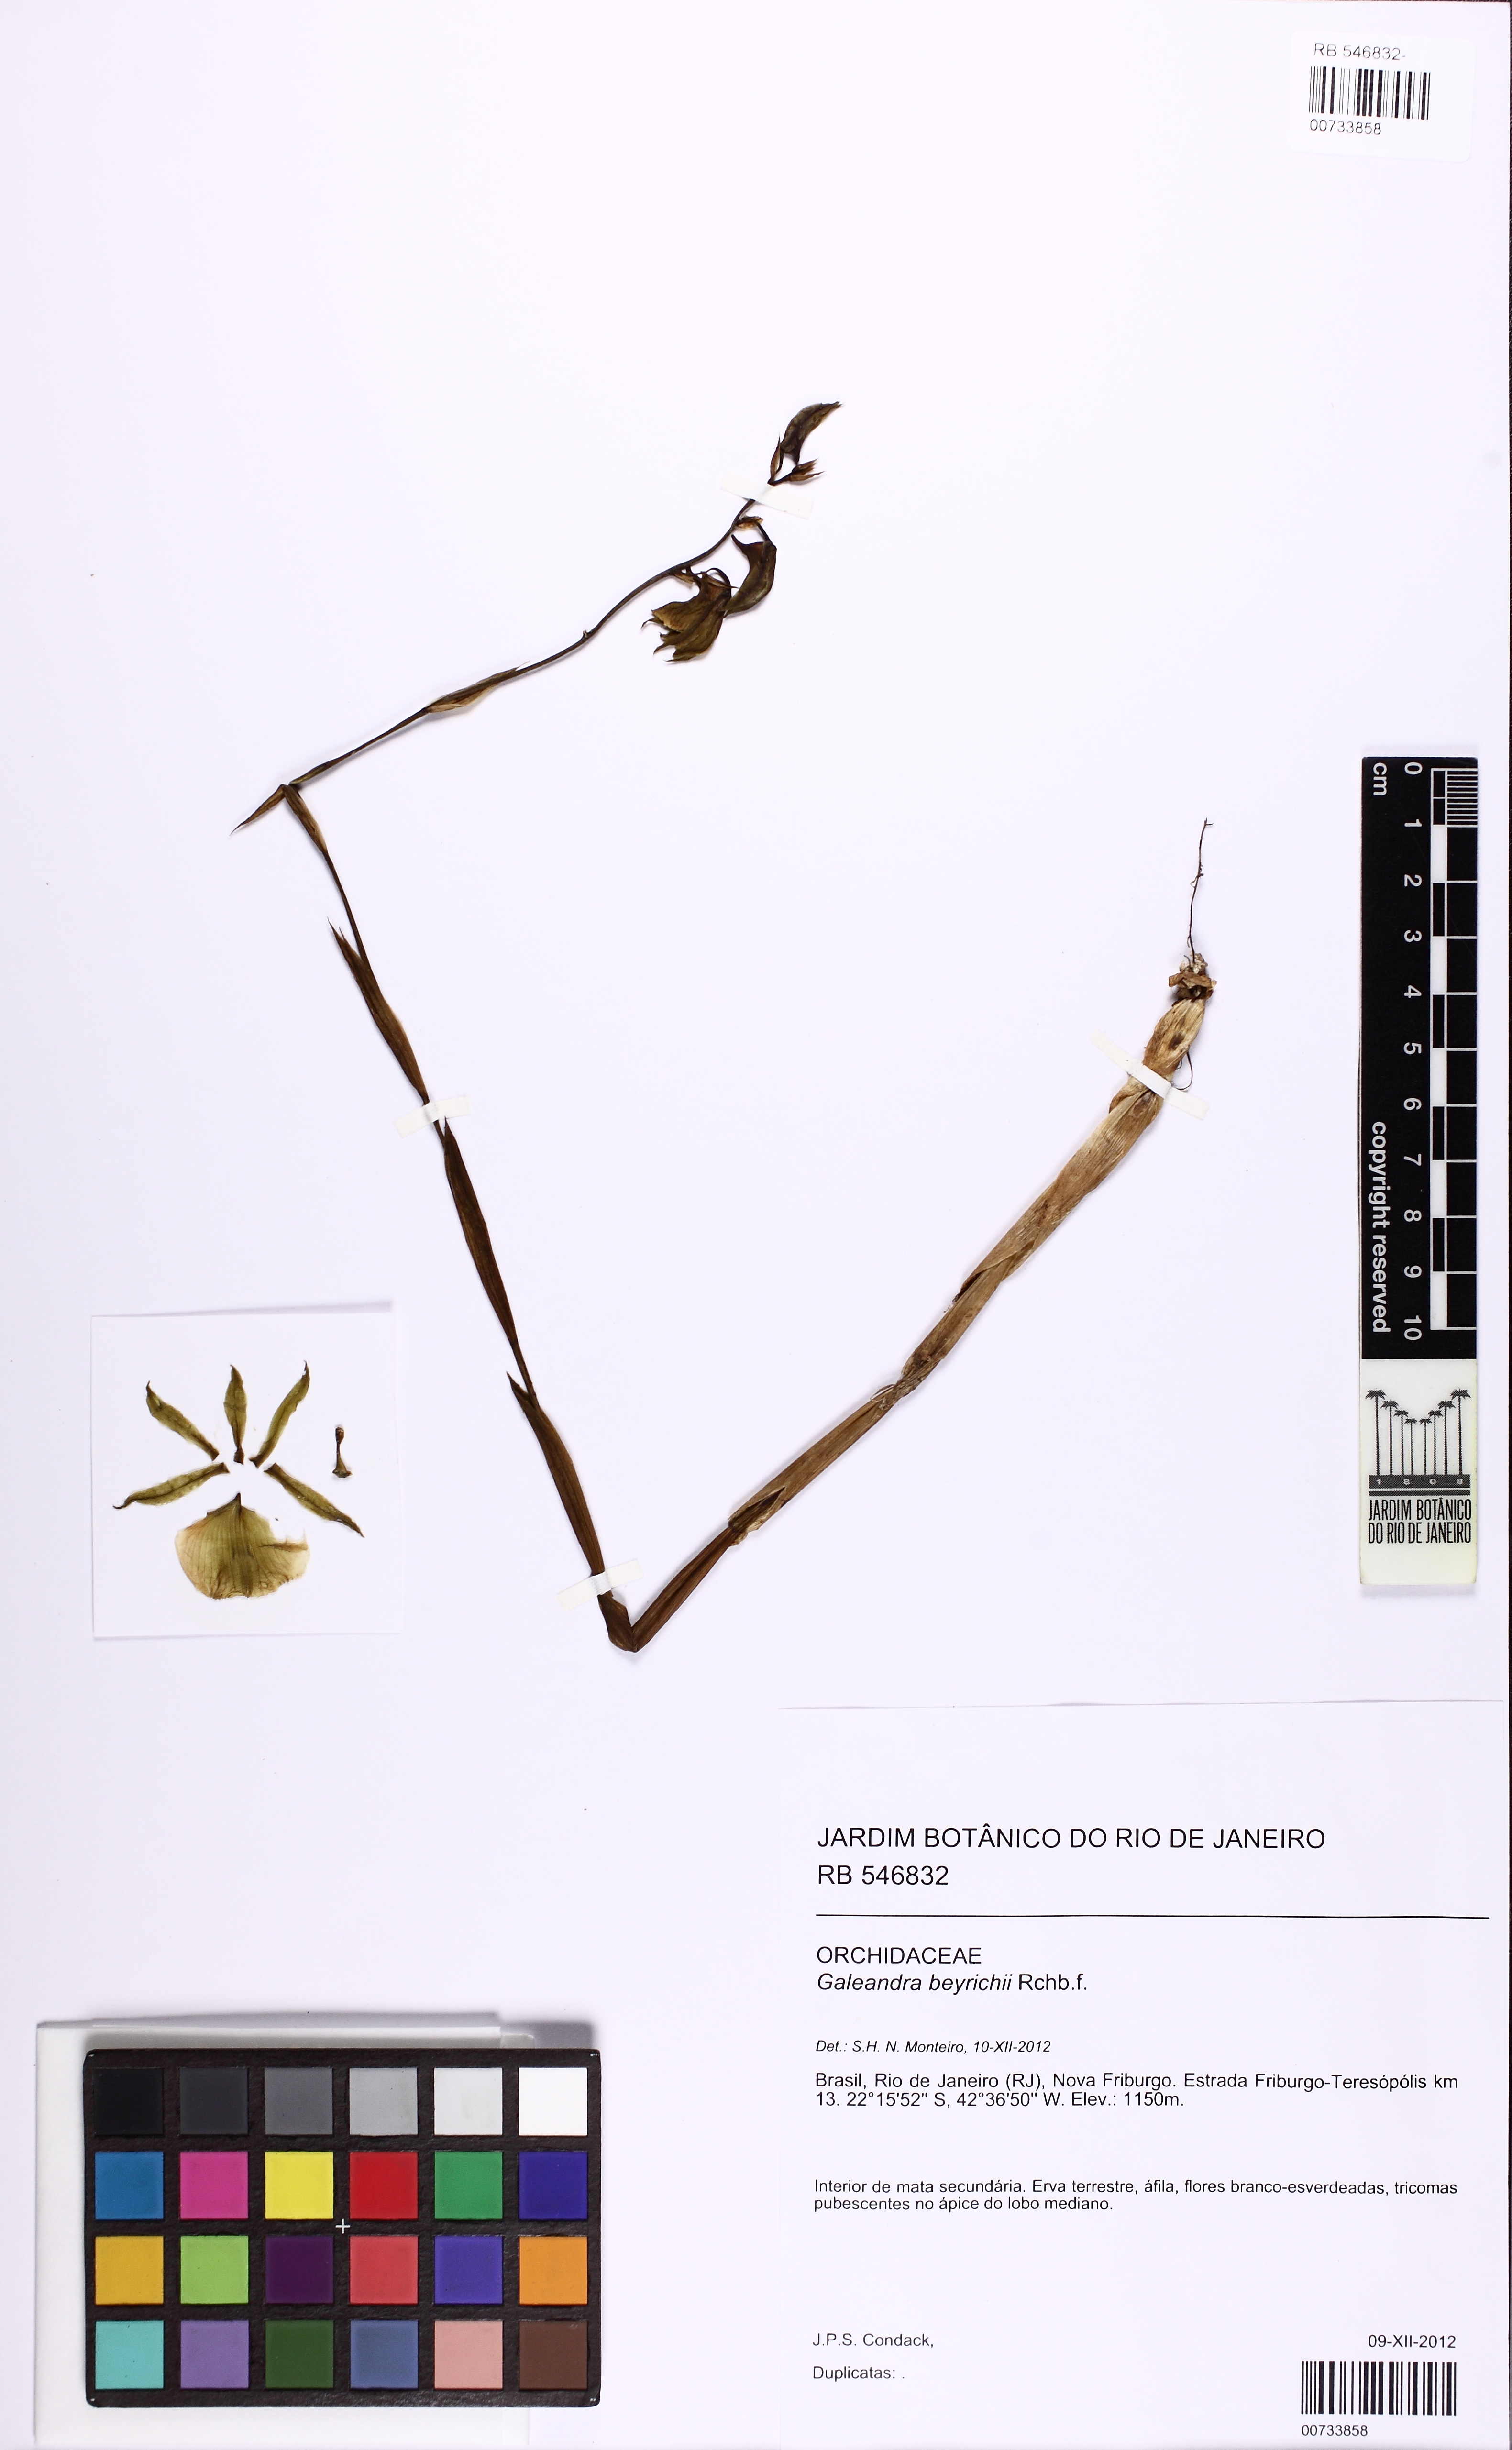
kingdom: Plantae
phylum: Tracheophyta
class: Liliopsida
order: Asparagales
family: Orchidaceae
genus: Galeandra
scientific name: Galeandra beyrichii
